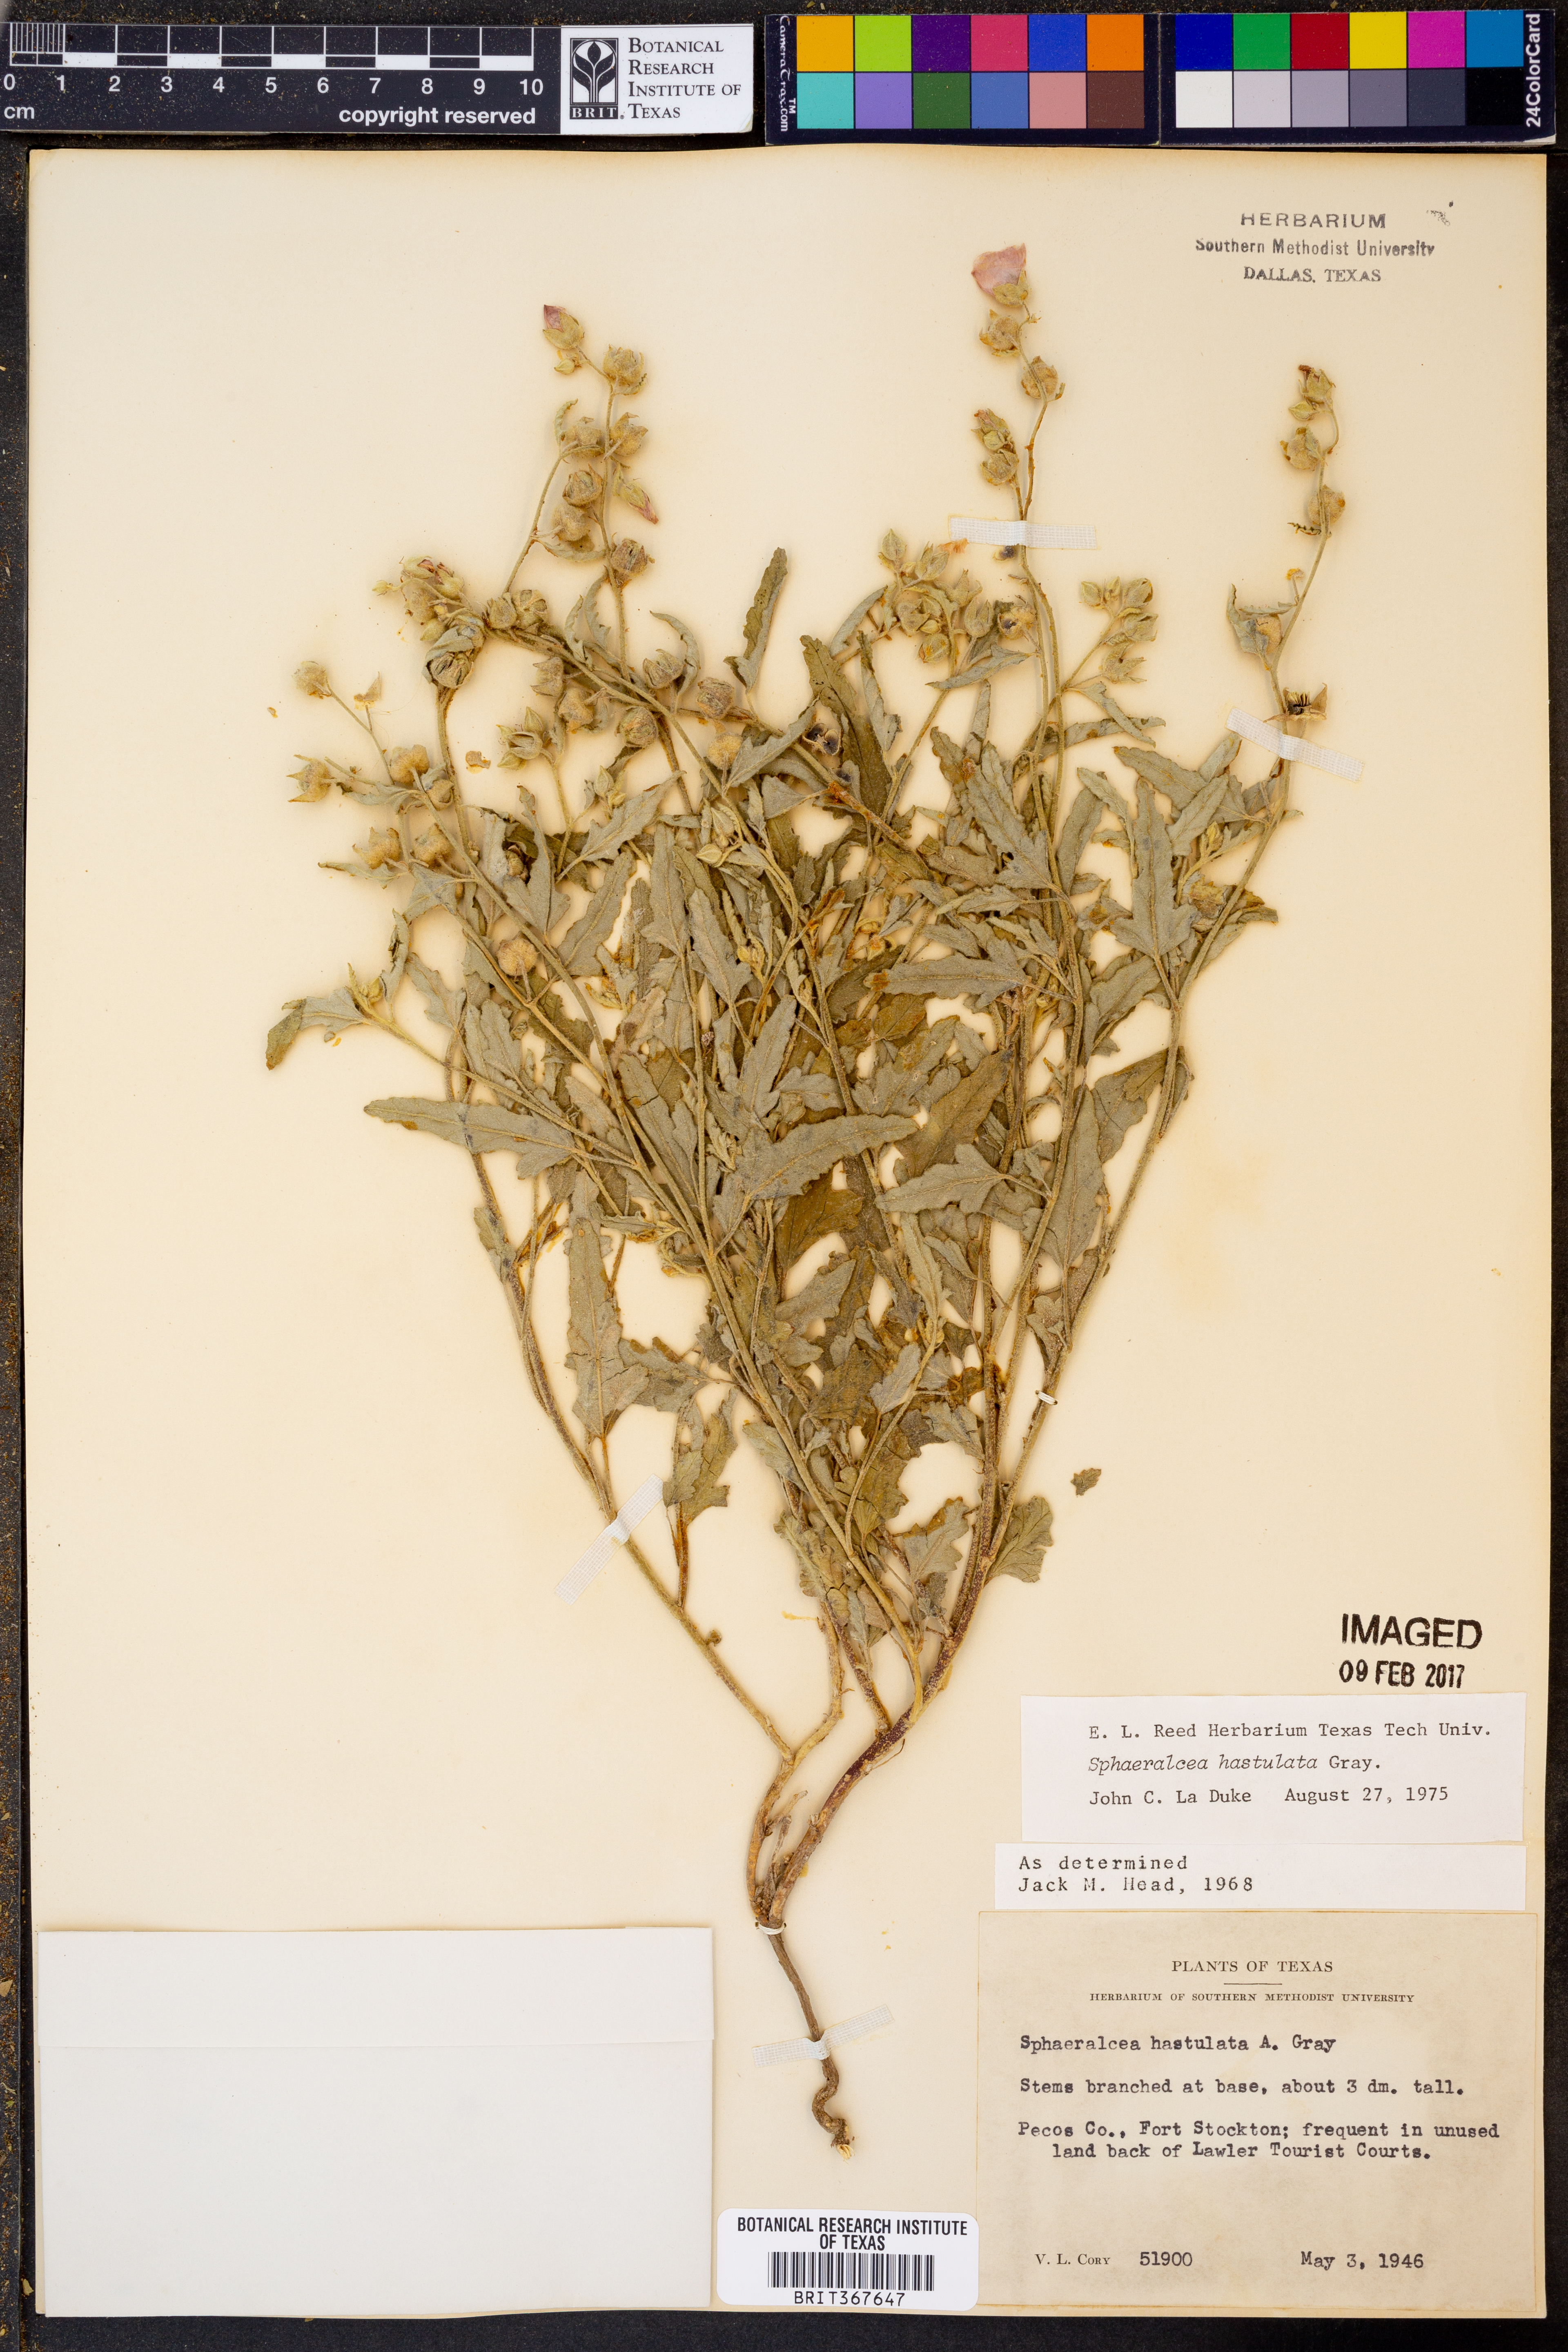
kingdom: Plantae
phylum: Tracheophyta
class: Magnoliopsida
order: Malvales
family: Malvaceae
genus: Sphaeralcea
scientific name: Sphaeralcea hastulata
